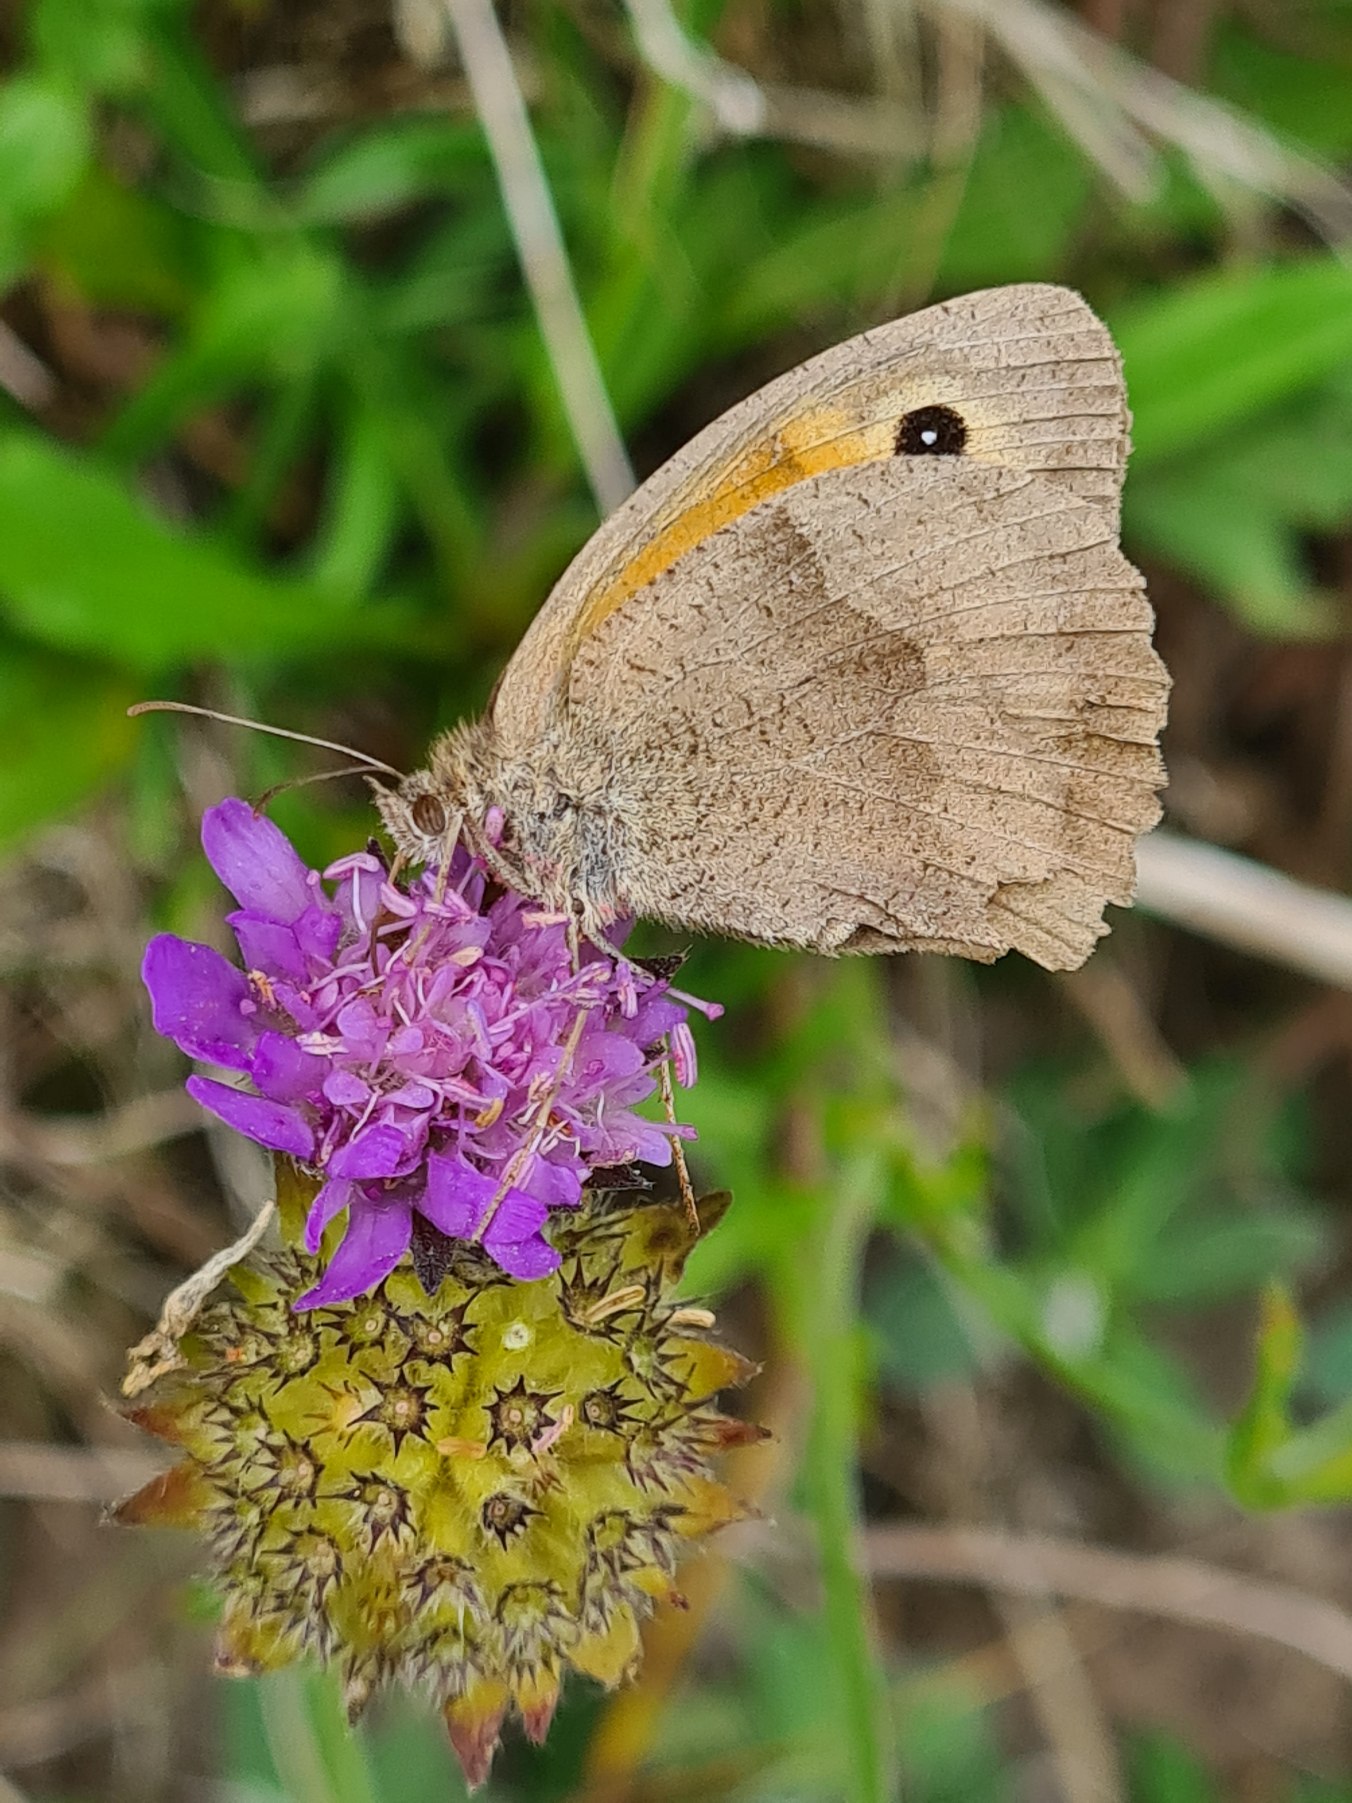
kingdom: Animalia
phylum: Arthropoda
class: Insecta
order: Lepidoptera
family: Nymphalidae
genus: Maniola
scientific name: Maniola jurtina
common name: Græsrandøje
